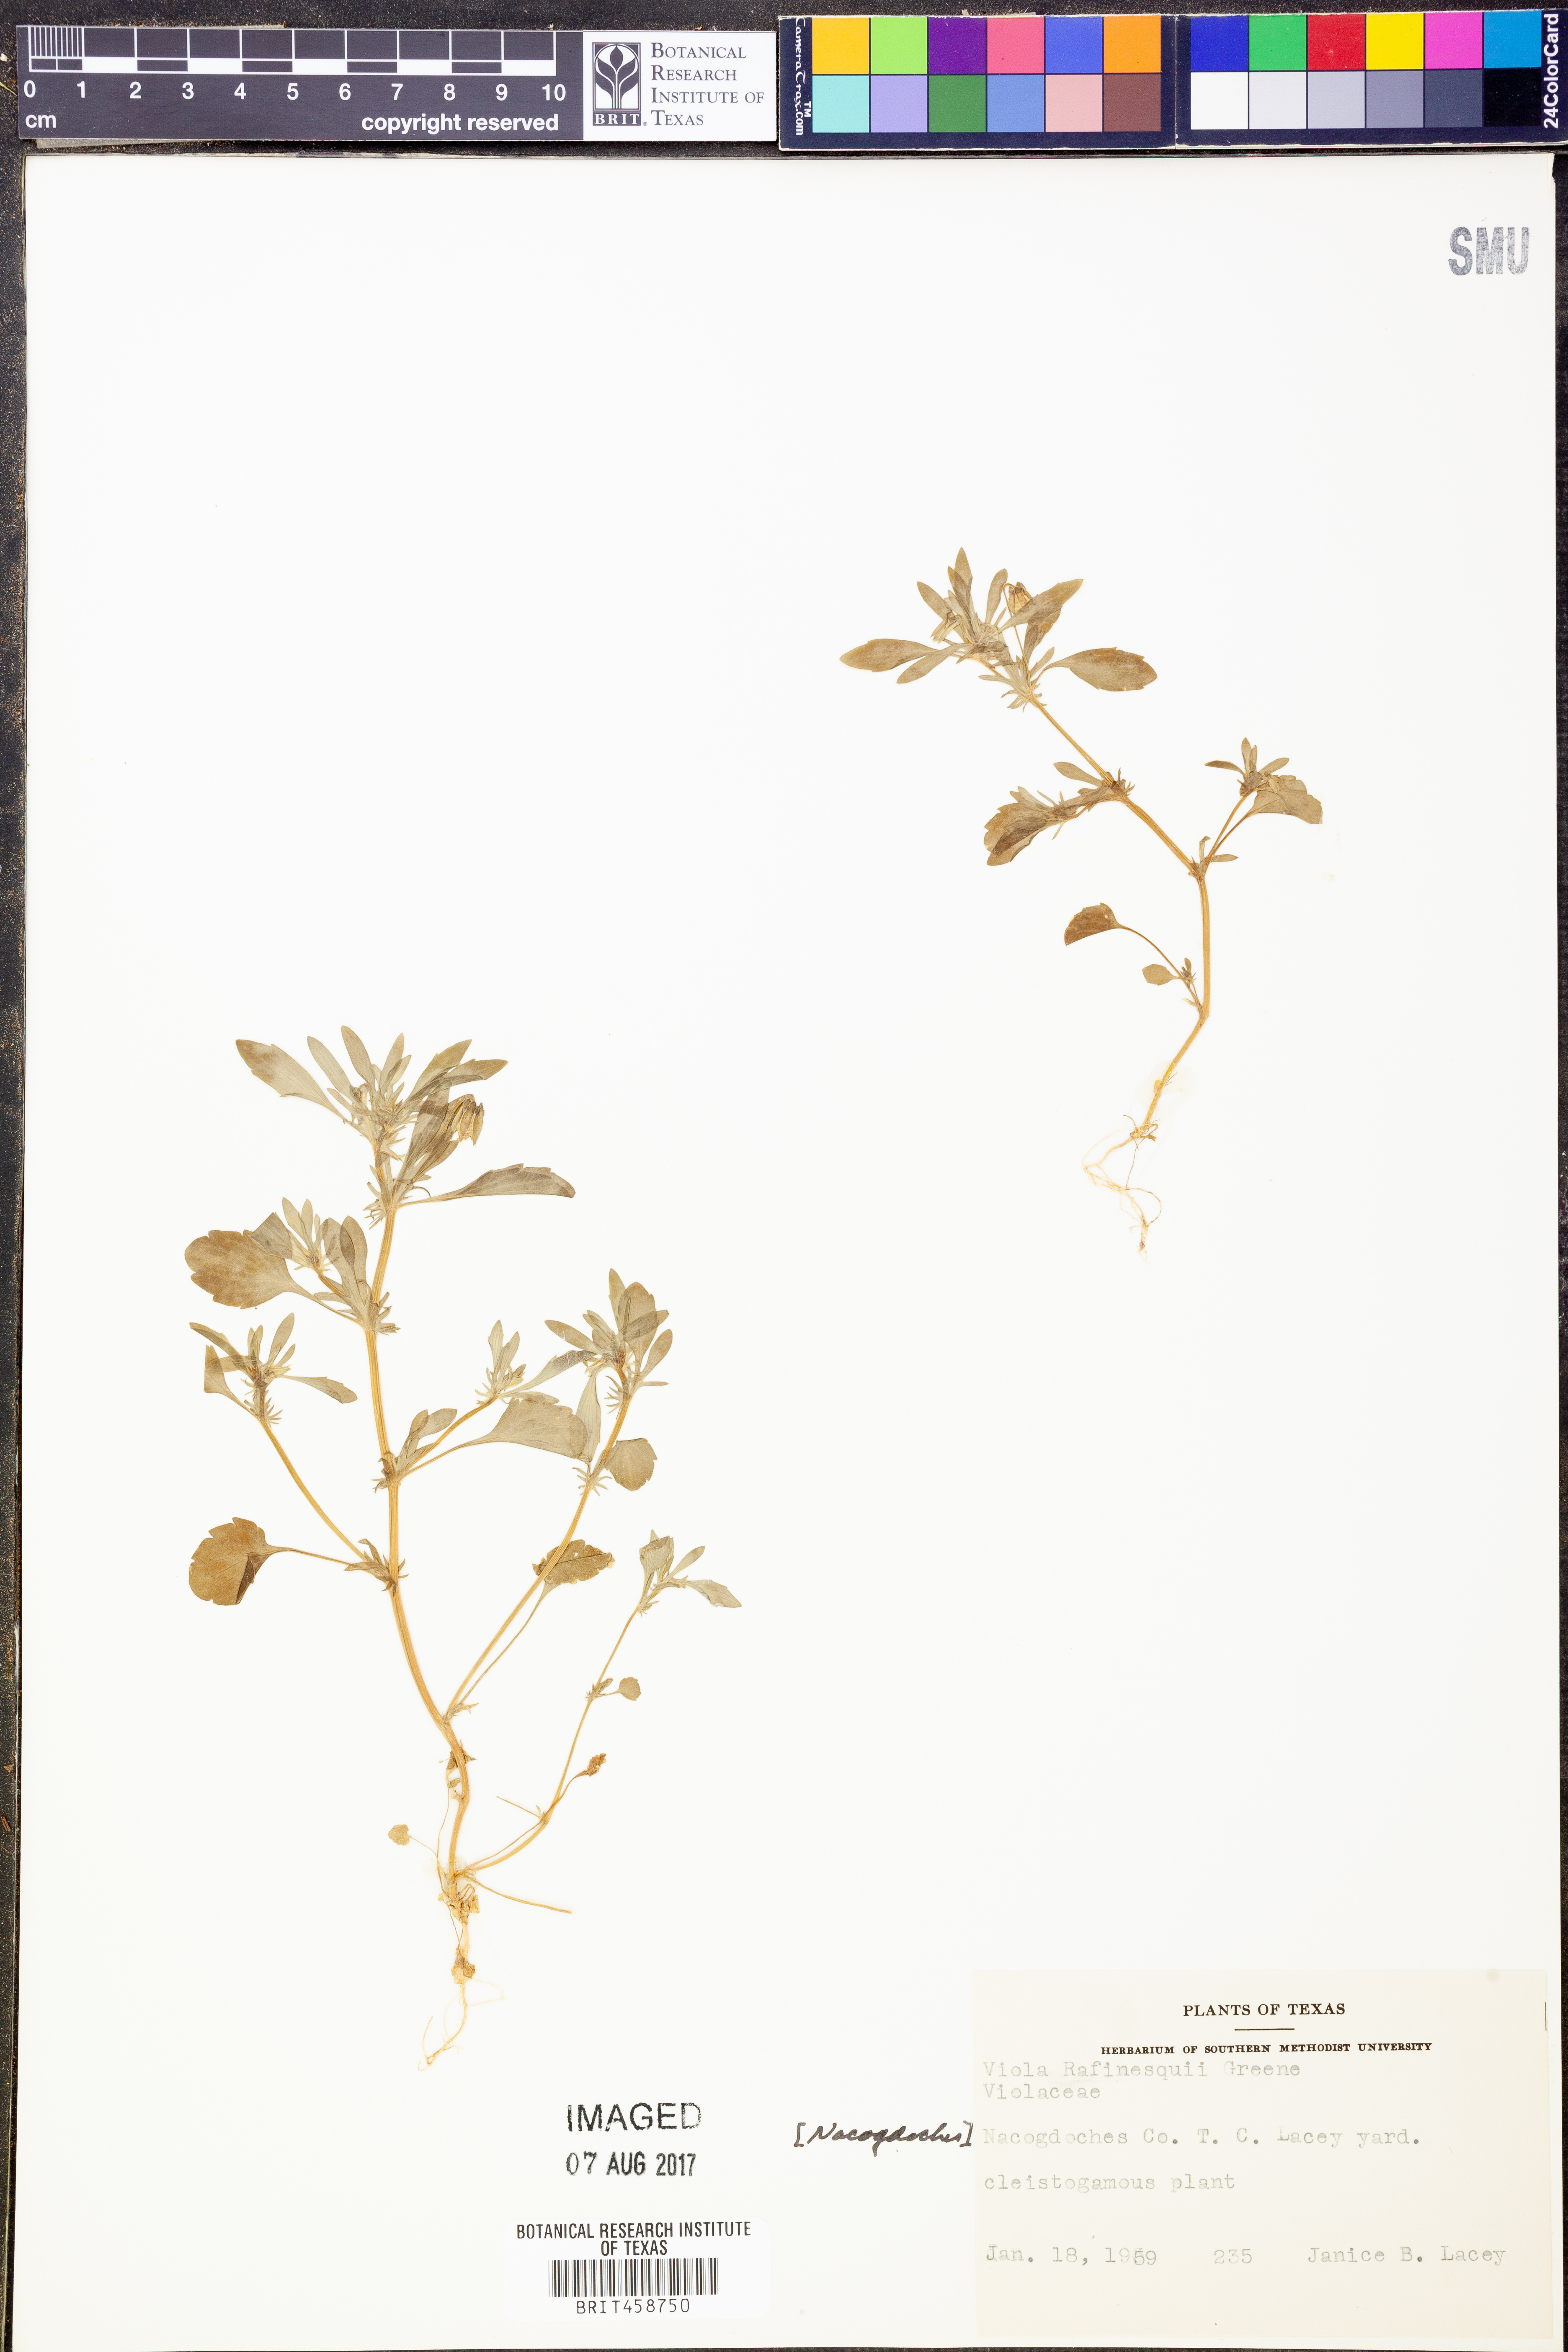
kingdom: Plantae
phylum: Tracheophyta
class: Magnoliopsida
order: Malpighiales
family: Violaceae
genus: Viola
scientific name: Viola rafinesquei
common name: American field pansy
